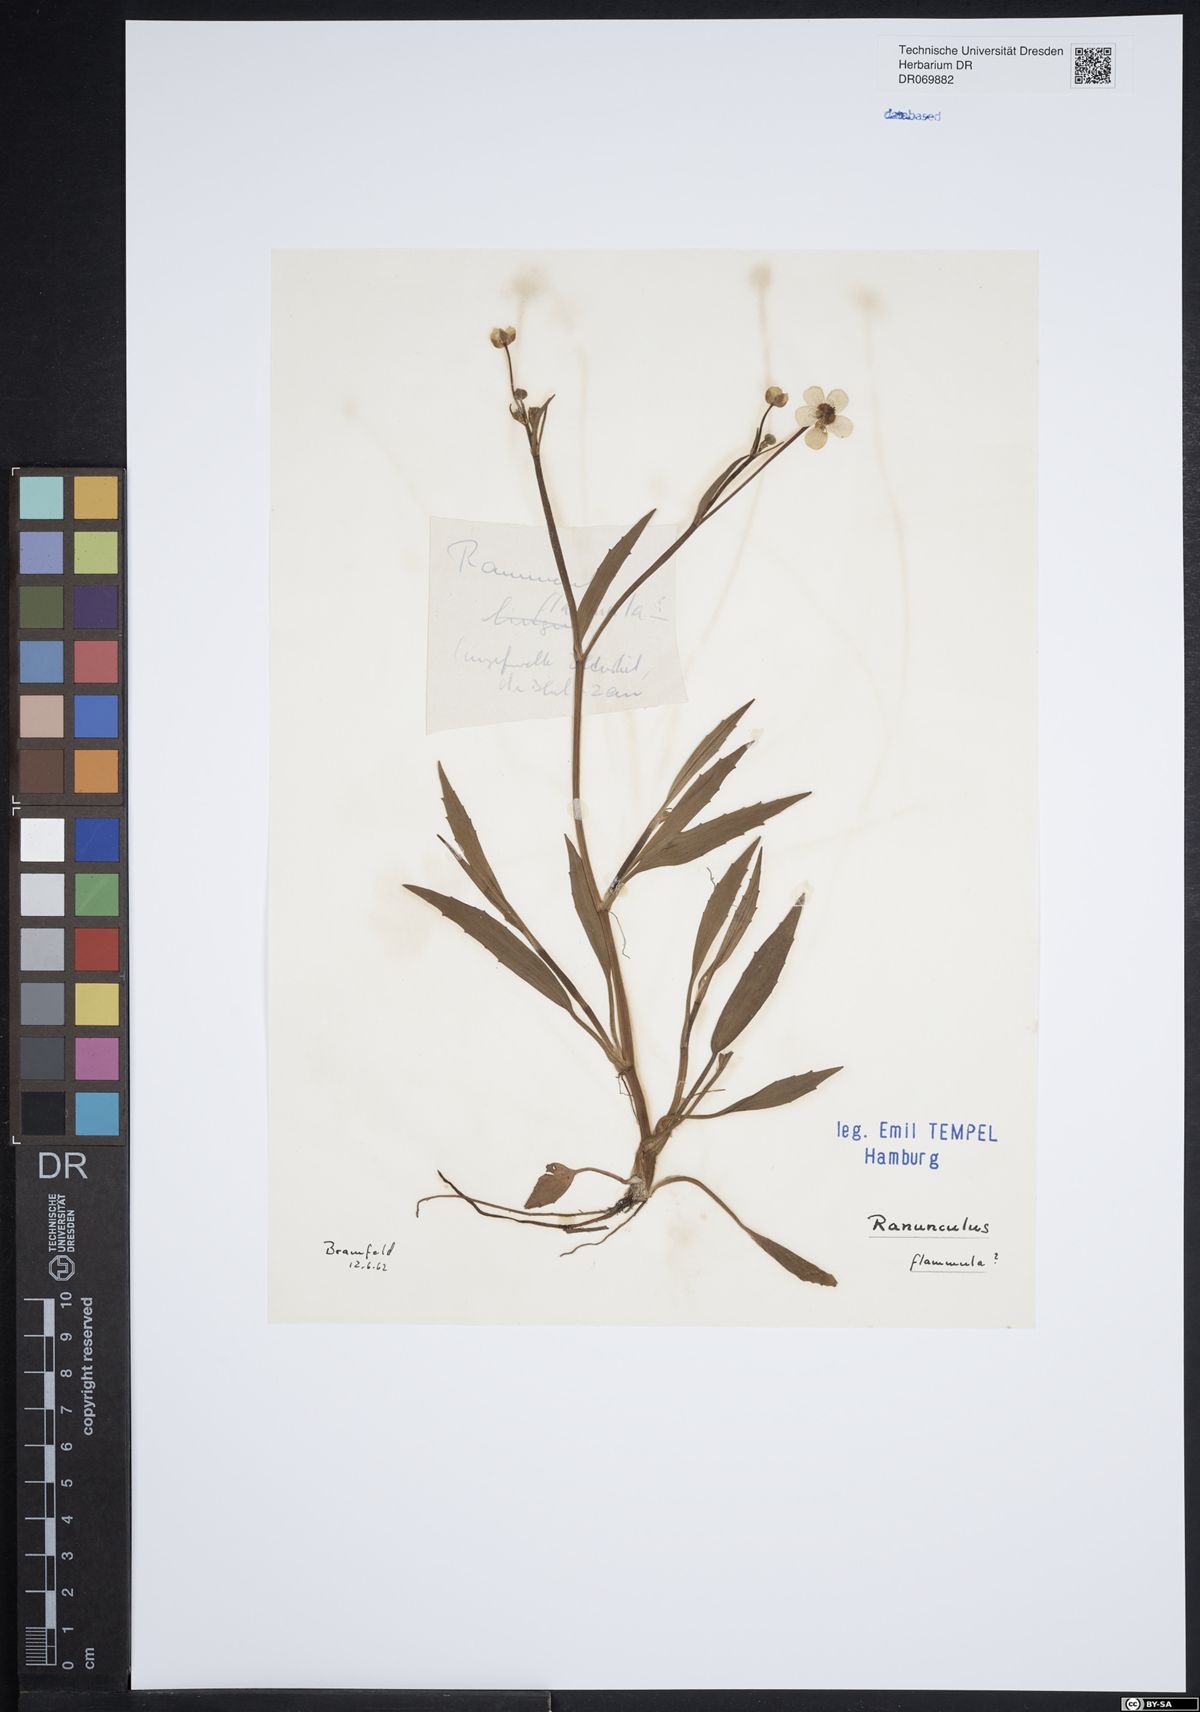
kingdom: Plantae
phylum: Tracheophyta
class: Magnoliopsida
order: Ranunculales
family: Ranunculaceae
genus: Ranunculus
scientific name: Ranunculus flammula
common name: Lesser spearwort
